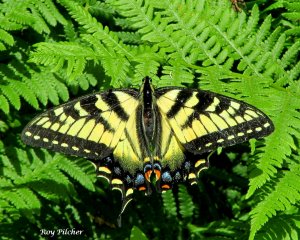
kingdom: Animalia
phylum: Arthropoda
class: Insecta
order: Lepidoptera
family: Papilionidae
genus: Pterourus
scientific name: Pterourus canadensis
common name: Canadian Tiger Swallowtail
